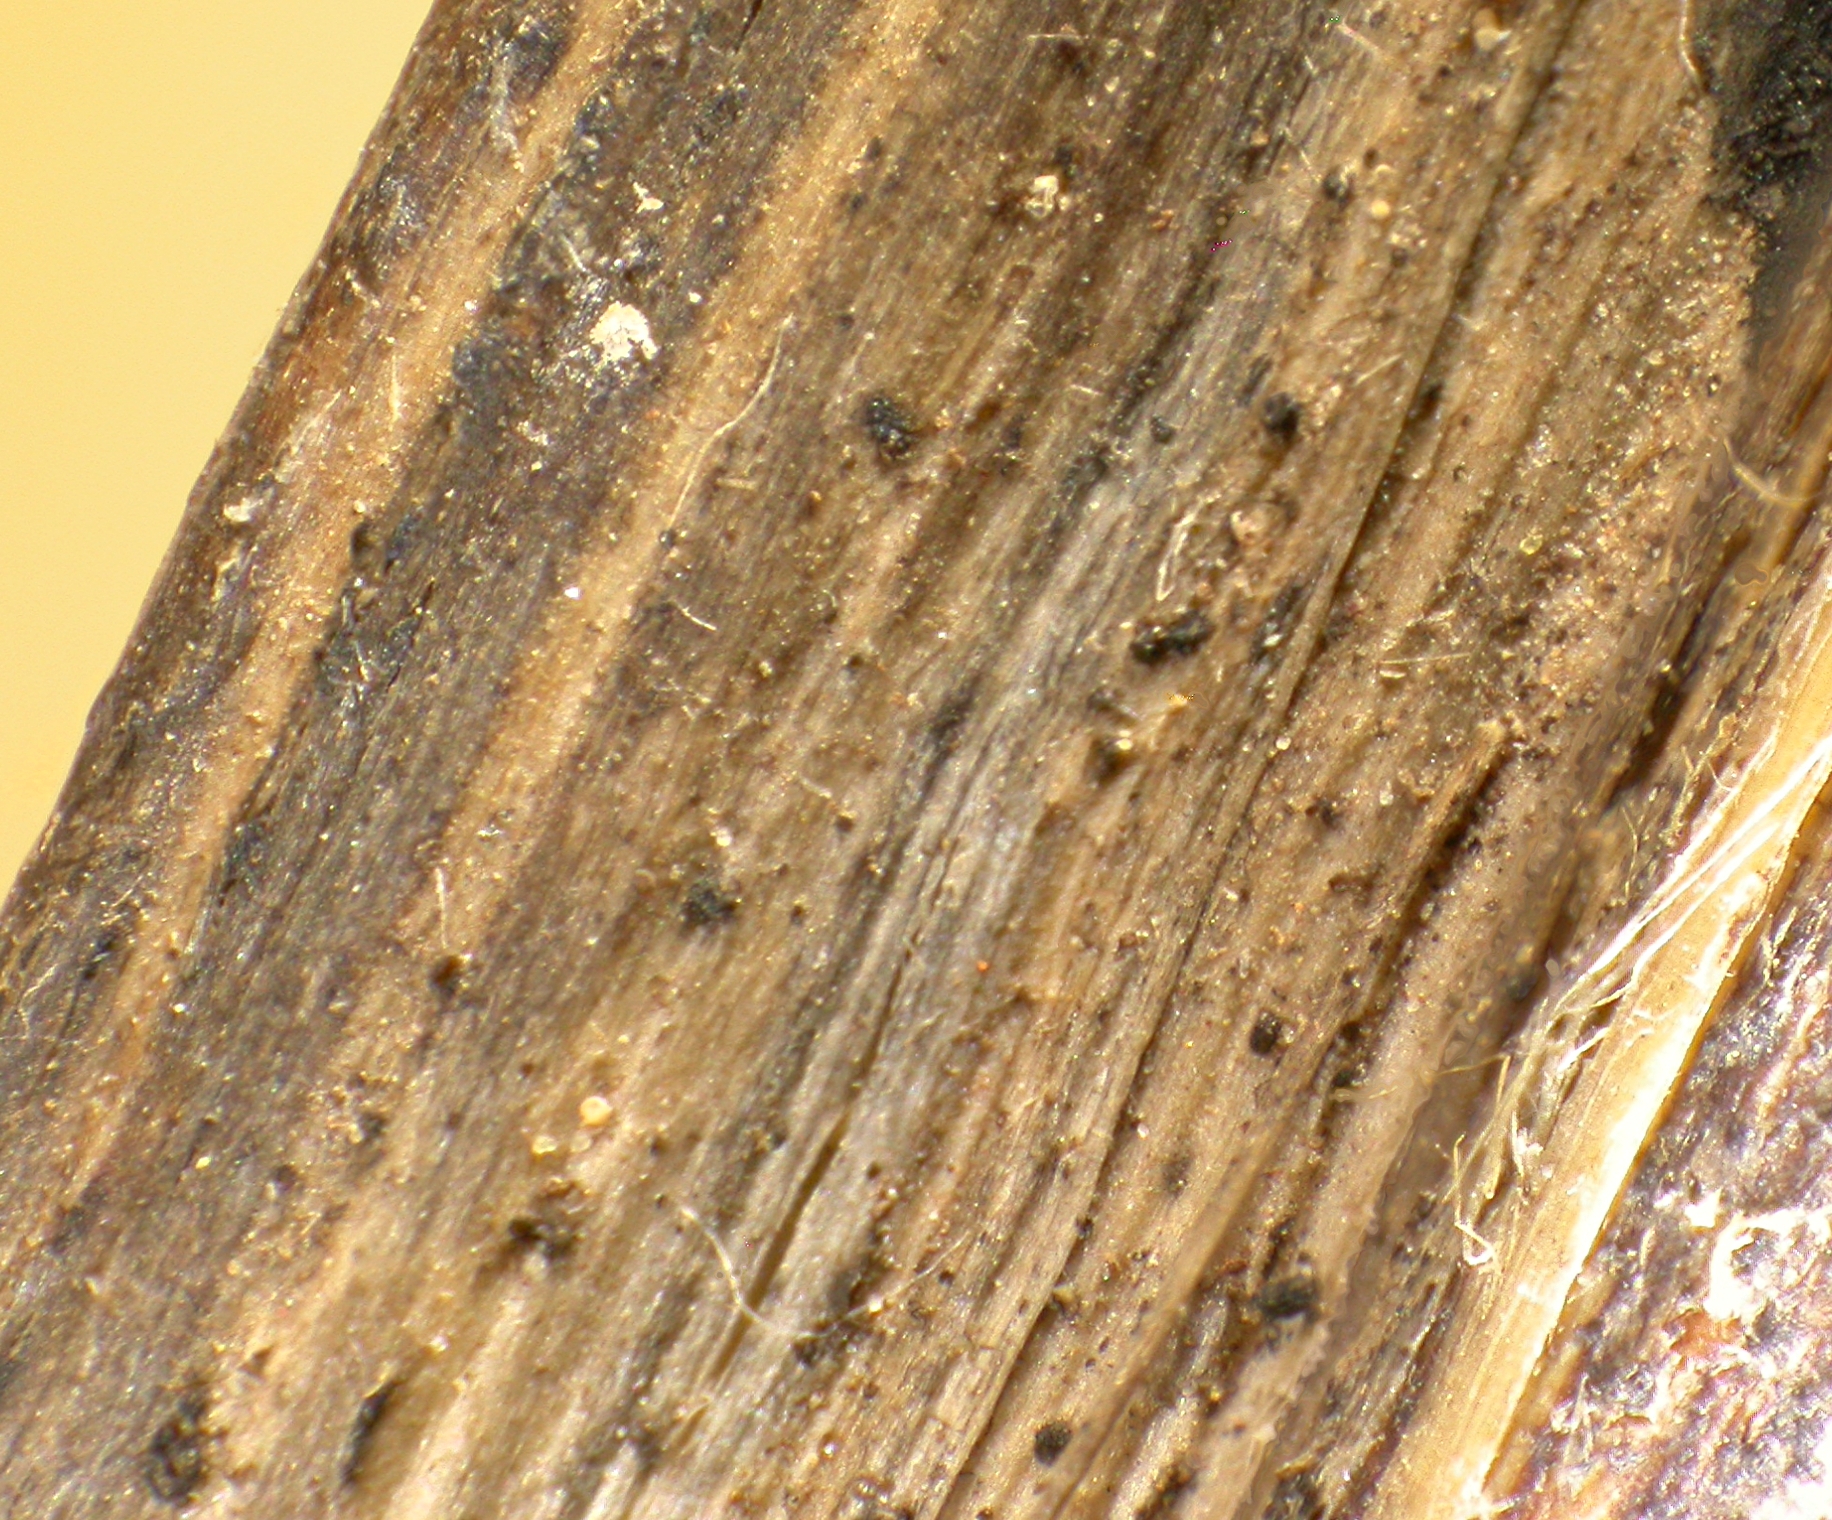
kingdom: Fungi
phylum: Ascomycota
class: Orbiliomycetes
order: Orbiliales
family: Orbiliaceae
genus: Orbilia
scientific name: Orbilia flavida
